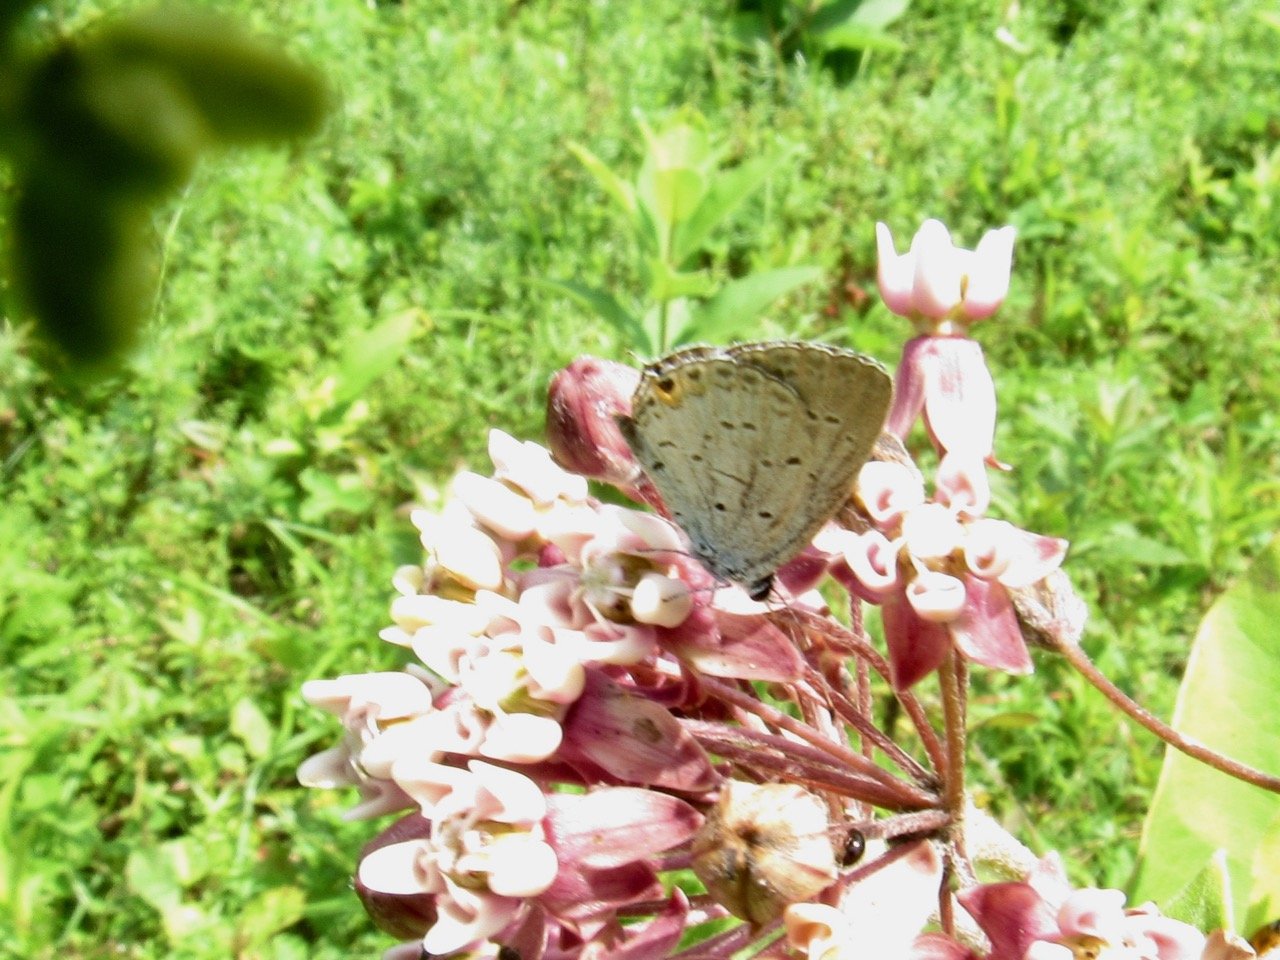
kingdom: Animalia
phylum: Arthropoda
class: Insecta
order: Lepidoptera
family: Lycaenidae
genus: Elkalyce
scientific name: Elkalyce comyntas
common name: Eastern Tailed-Blue
